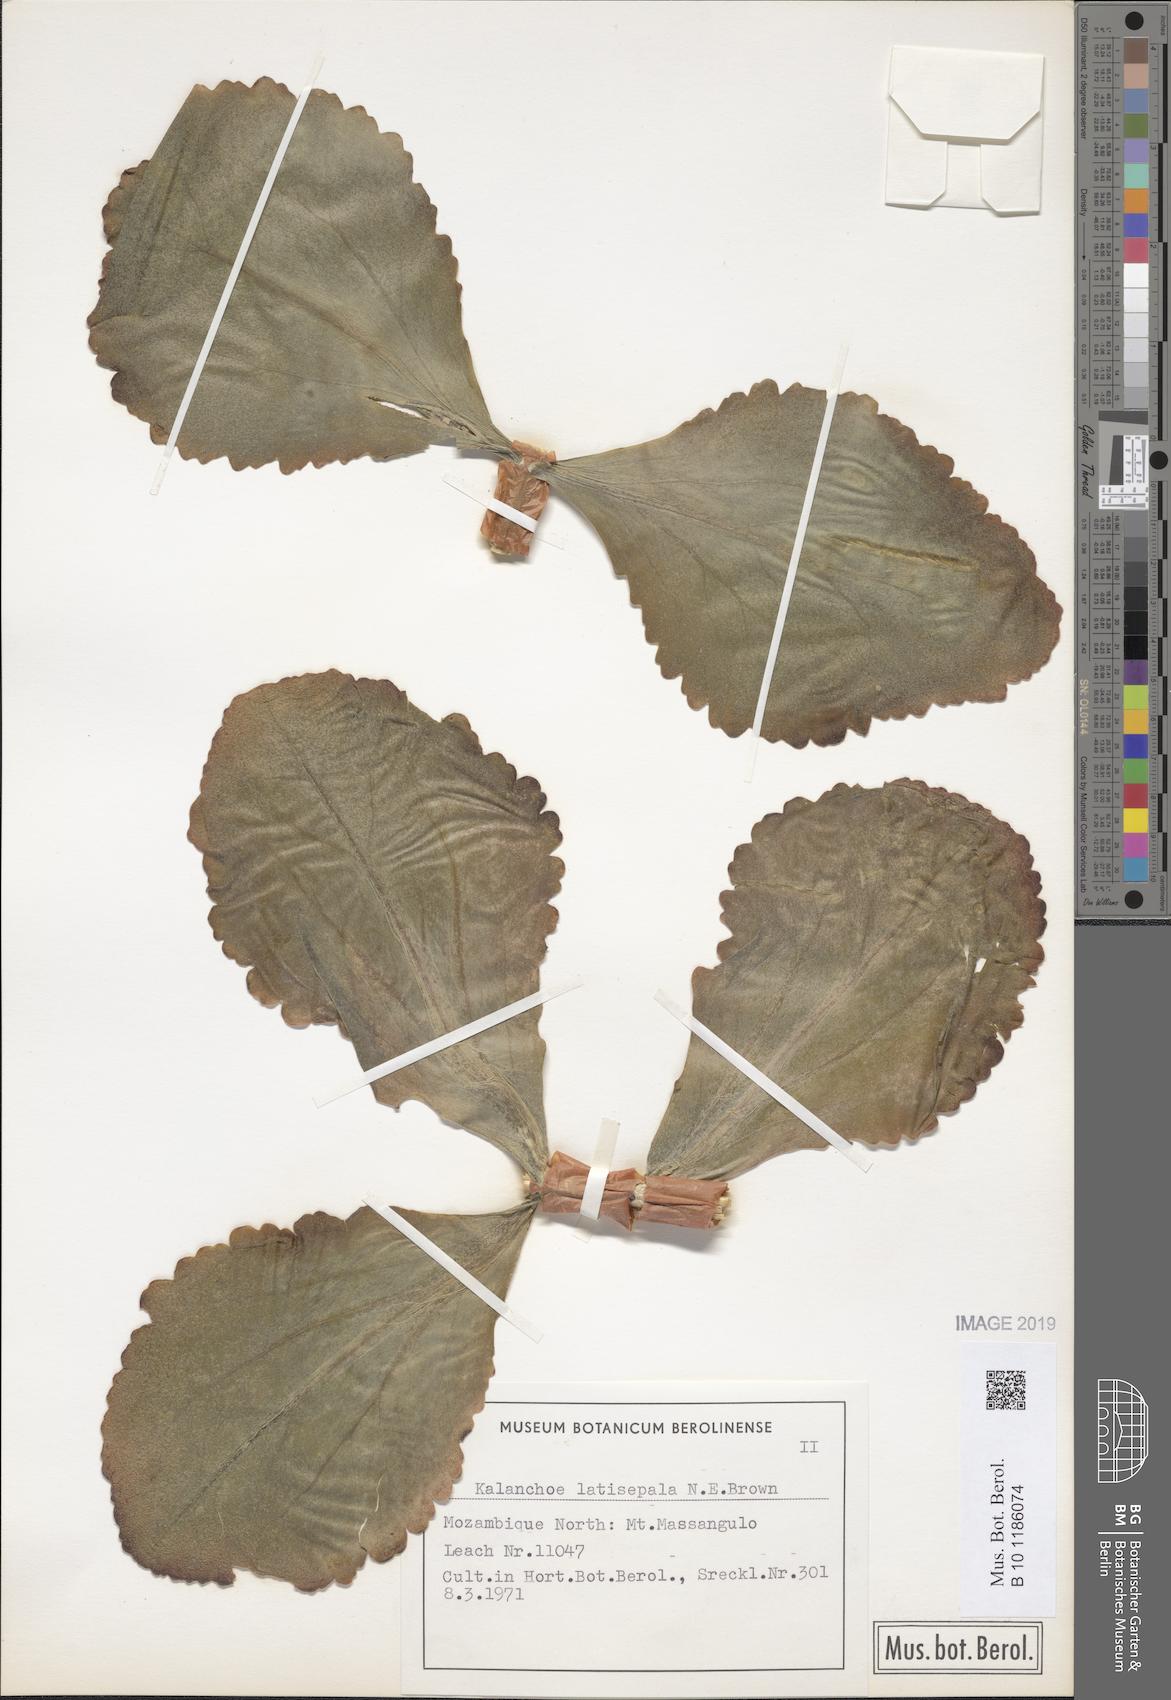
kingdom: Plantae
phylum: Tracheophyta
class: Magnoliopsida
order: Saxifragales
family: Crassulaceae
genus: Kalanchoe
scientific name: Kalanchoe latisepala
